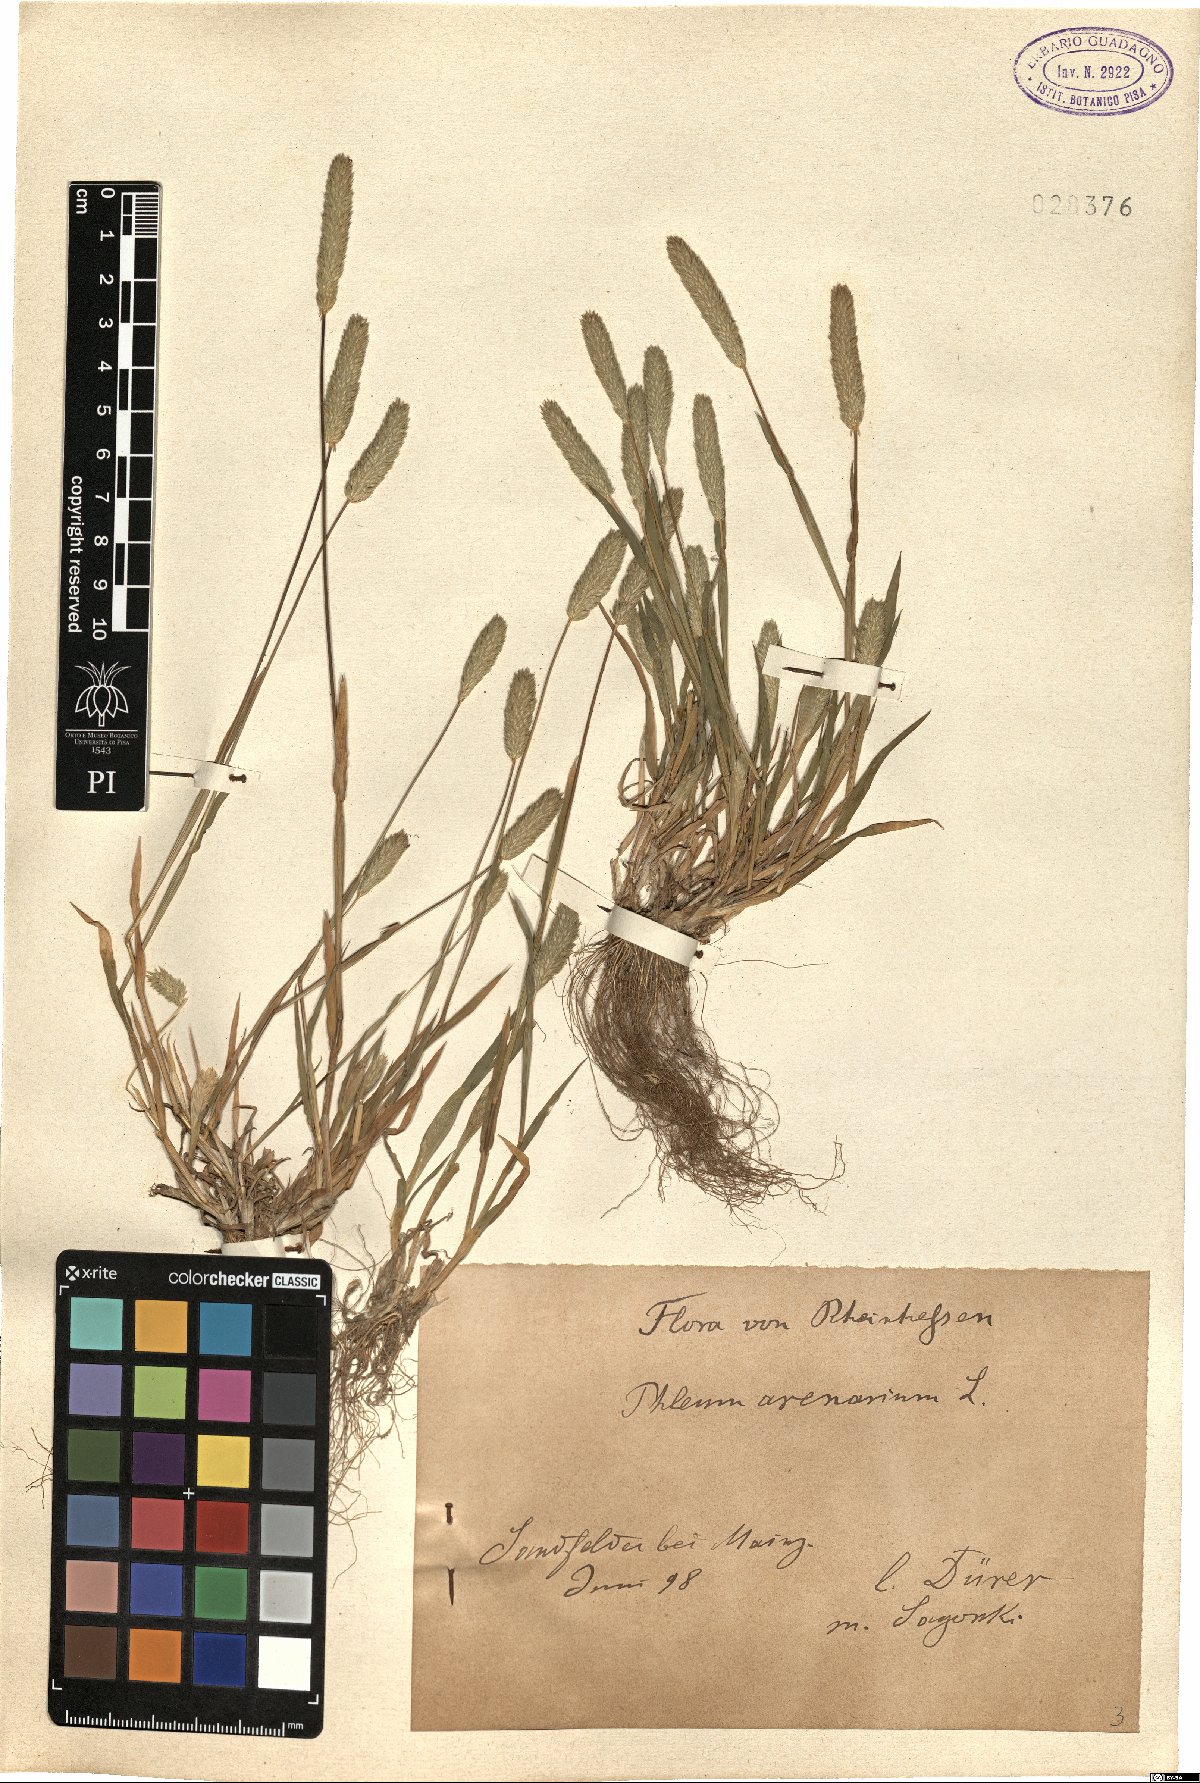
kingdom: Plantae
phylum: Tracheophyta
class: Liliopsida
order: Poales
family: Poaceae
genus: Phleum
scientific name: Phleum arenarium
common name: Sand cat's-tail
